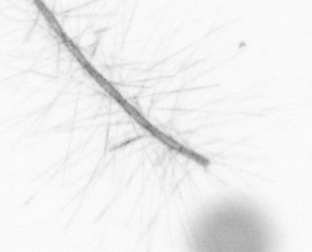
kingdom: Chromista
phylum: Ochrophyta
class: Bacillariophyceae
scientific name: Bacillariophyceae
